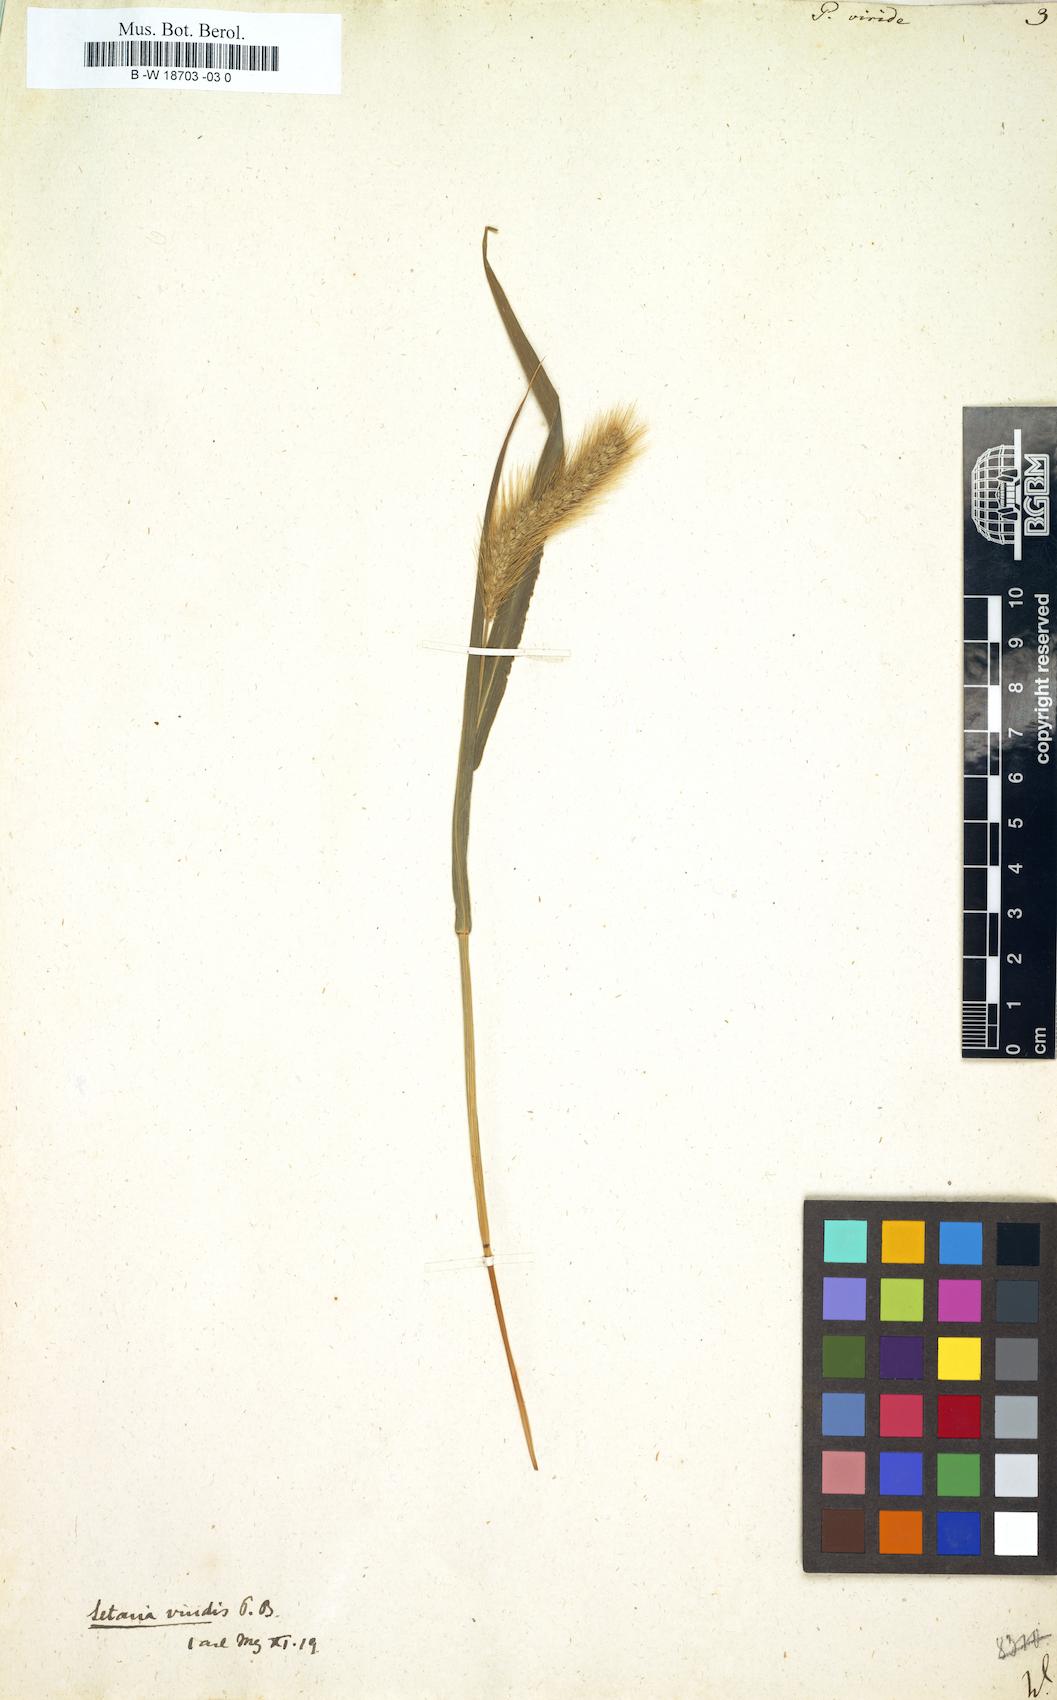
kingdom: Plantae
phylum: Tracheophyta
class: Liliopsida
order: Poales
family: Poaceae
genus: Setaria
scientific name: Setaria viridis
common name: Green bristlegrass
